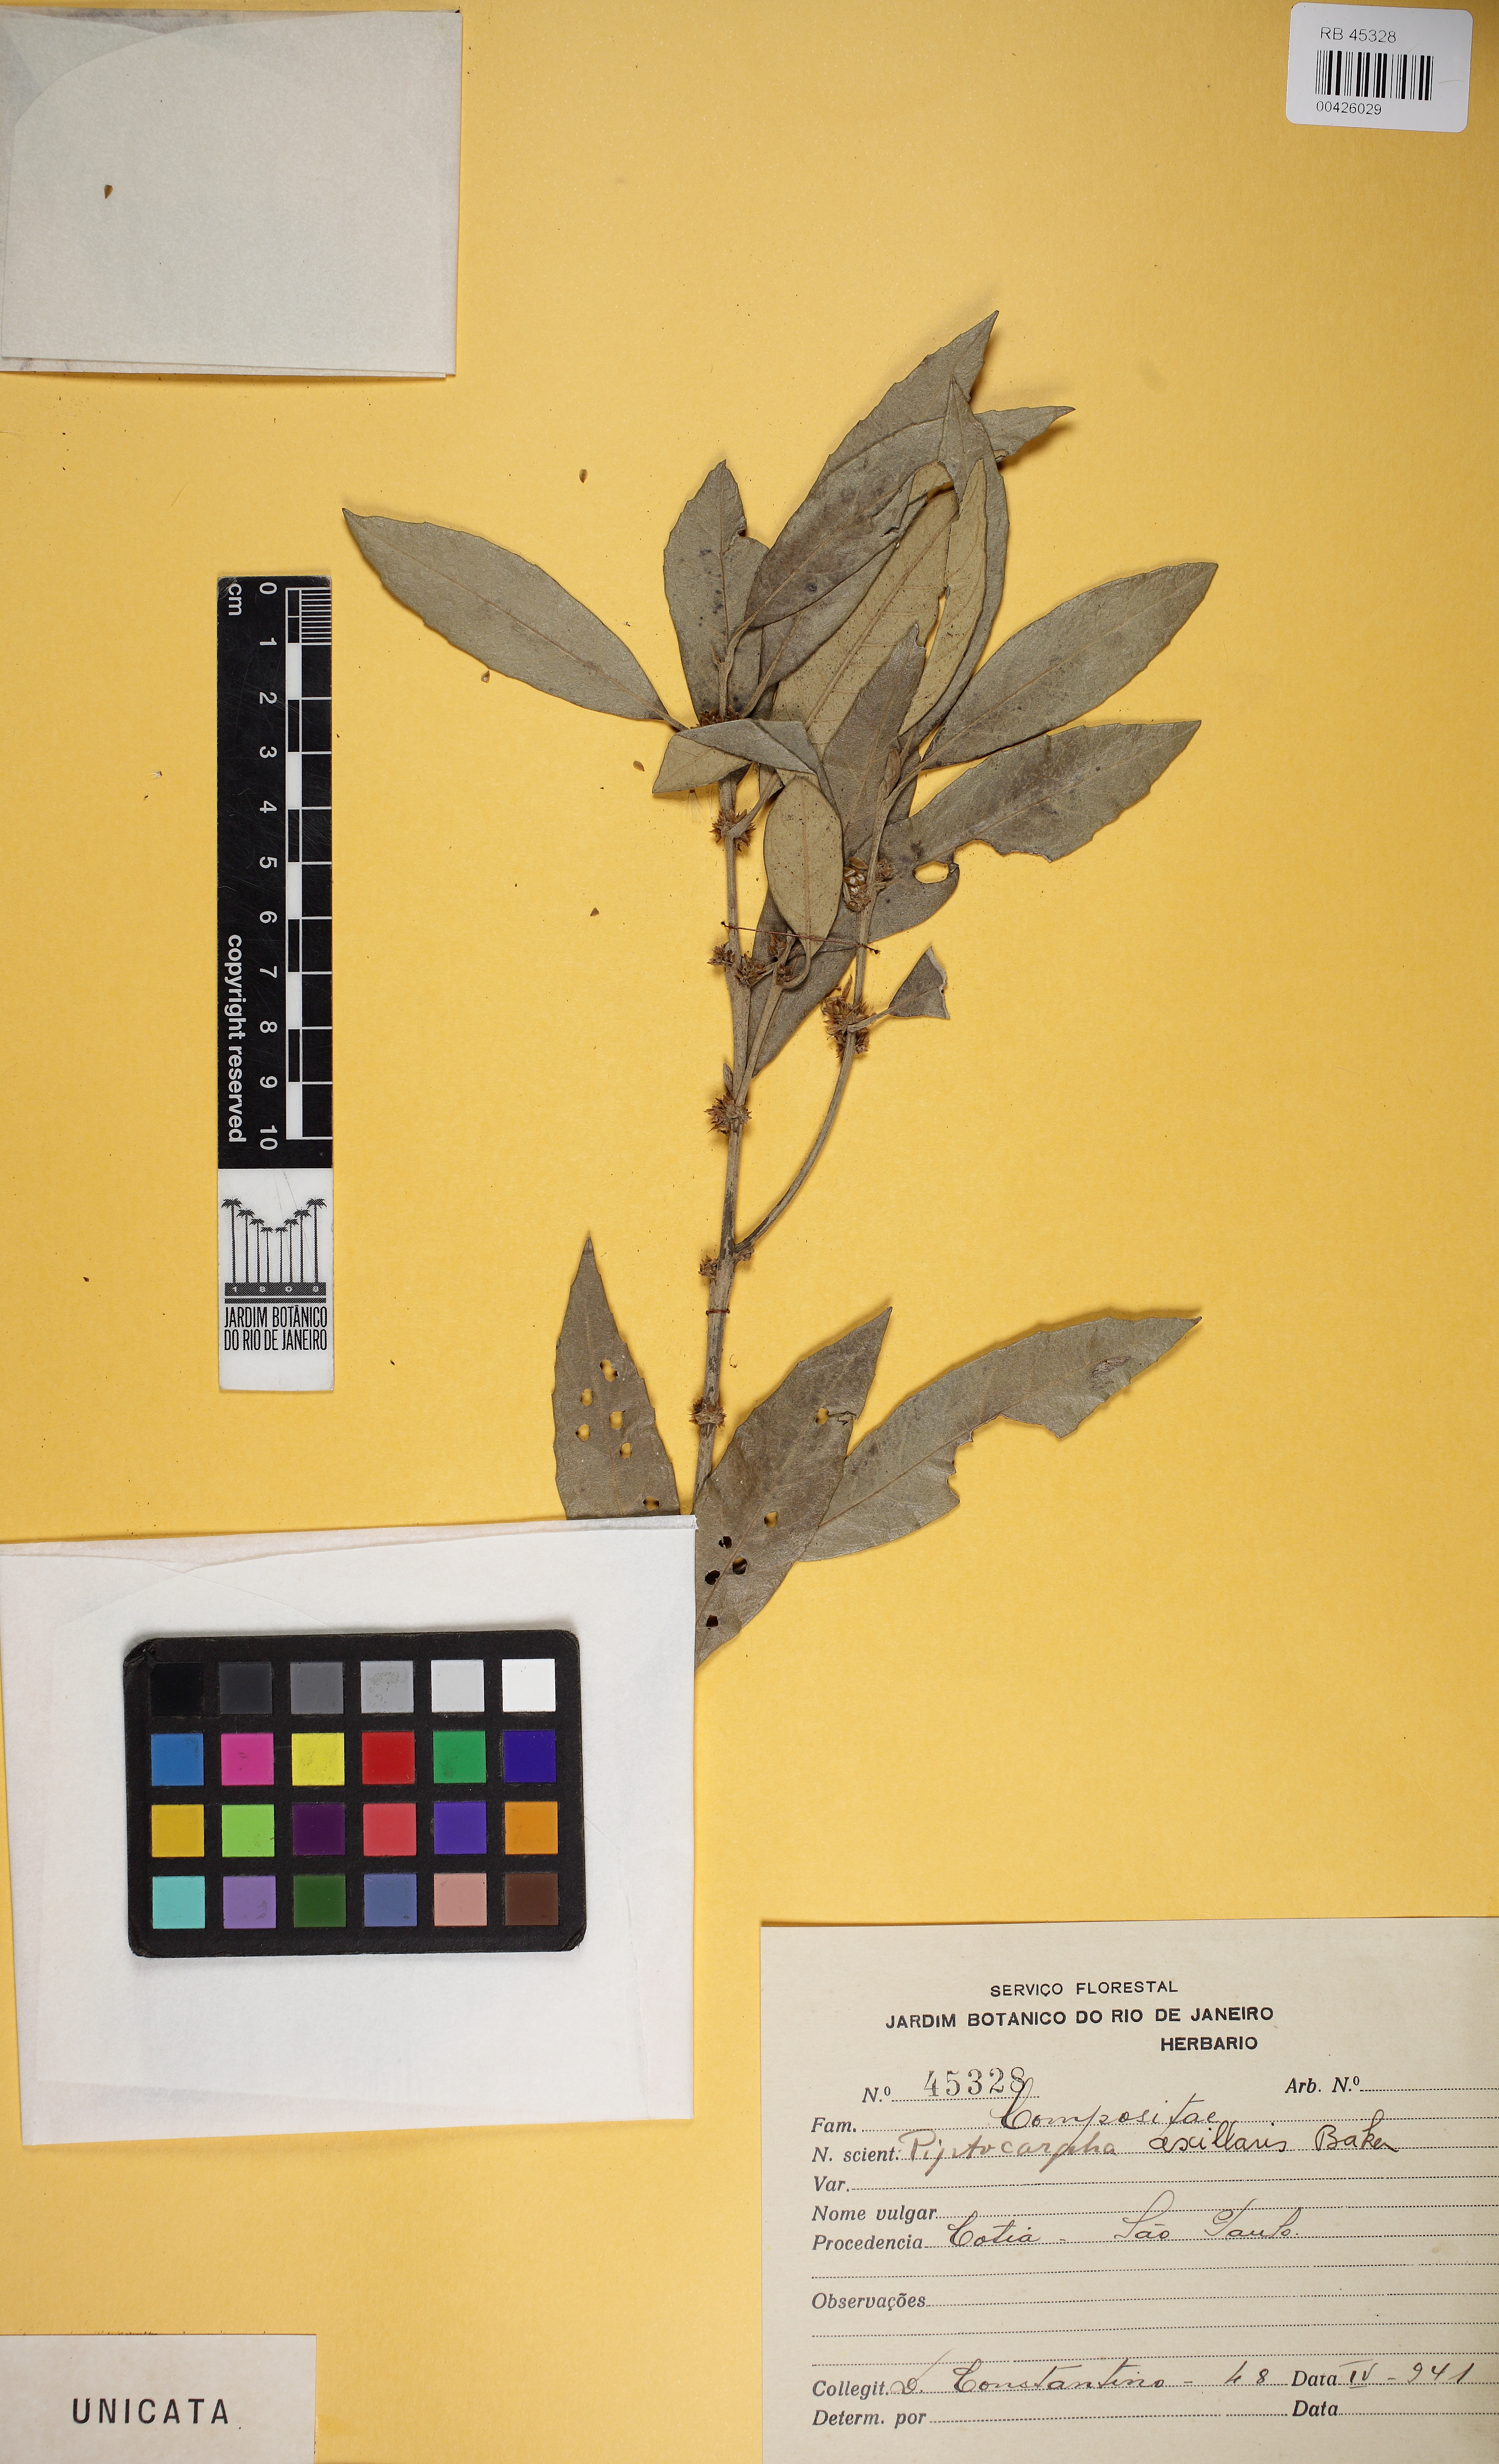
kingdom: Plantae
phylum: Tracheophyta
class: Magnoliopsida
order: Asterales
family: Asteraceae
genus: Piptocarpha
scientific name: Piptocarpha regnellii
